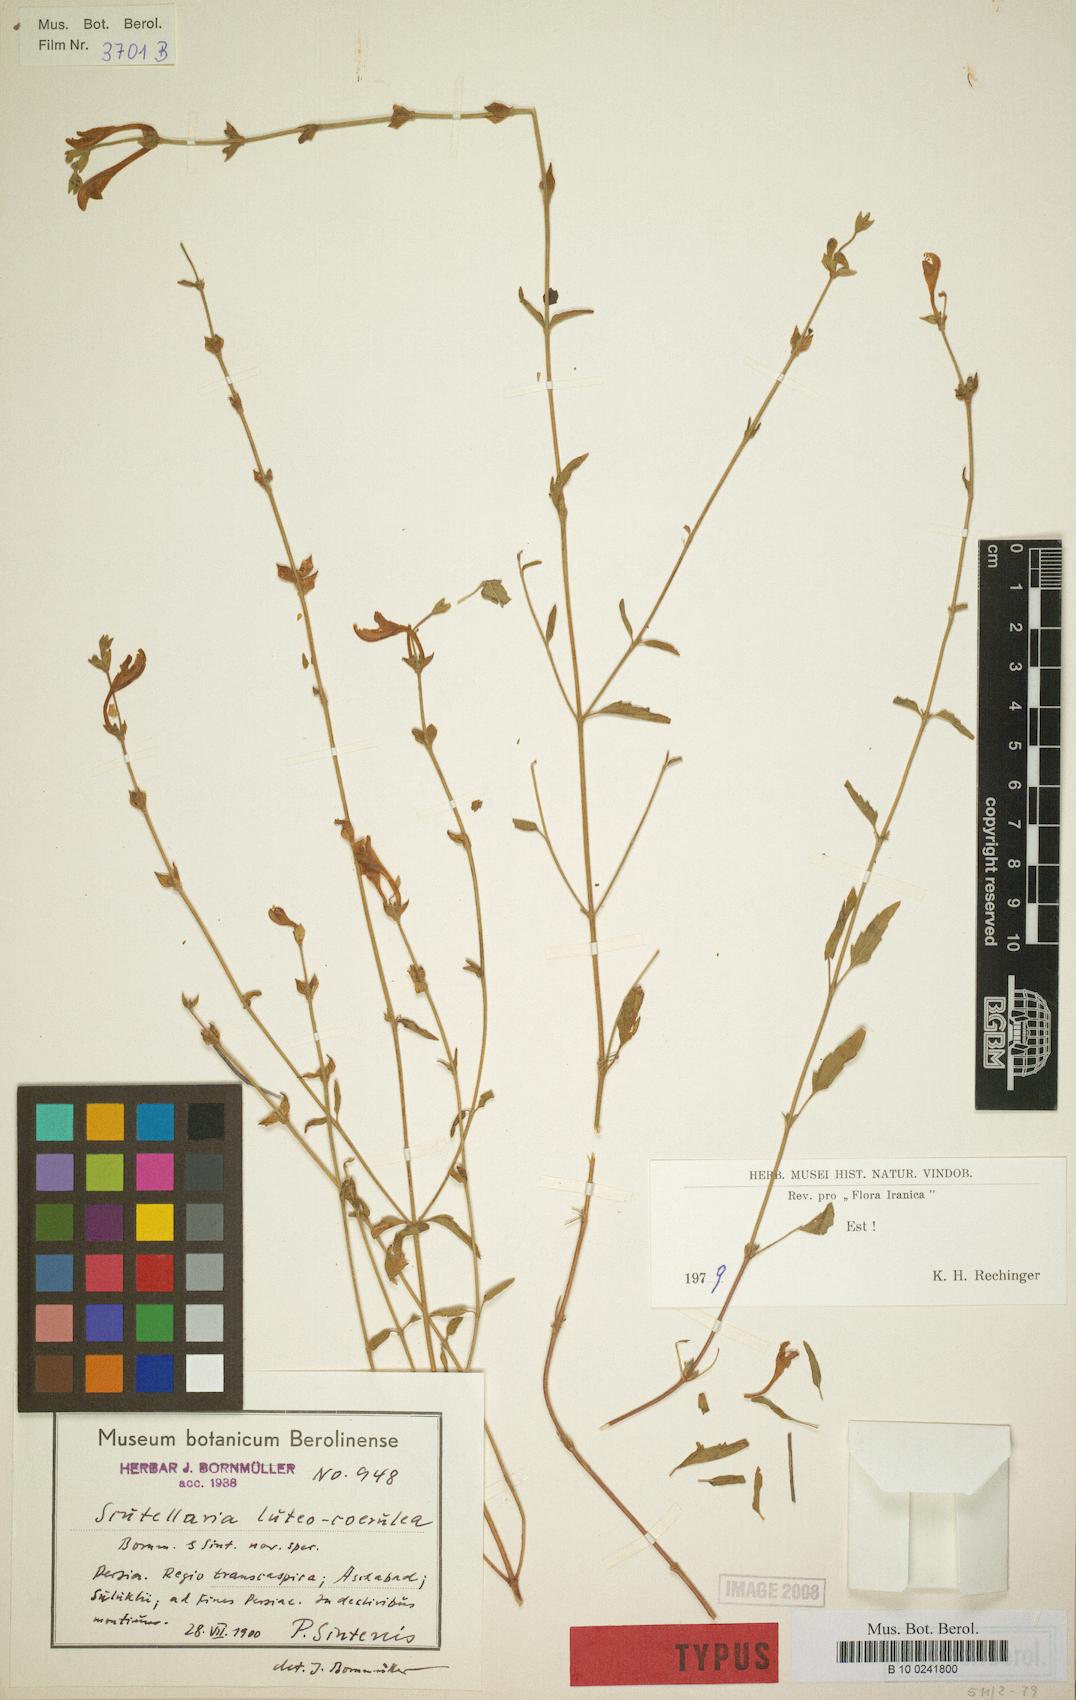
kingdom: Plantae
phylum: Tracheophyta
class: Magnoliopsida
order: Lamiales
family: Lamiaceae
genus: Scutellaria
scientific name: Scutellaria luteocaerulea
